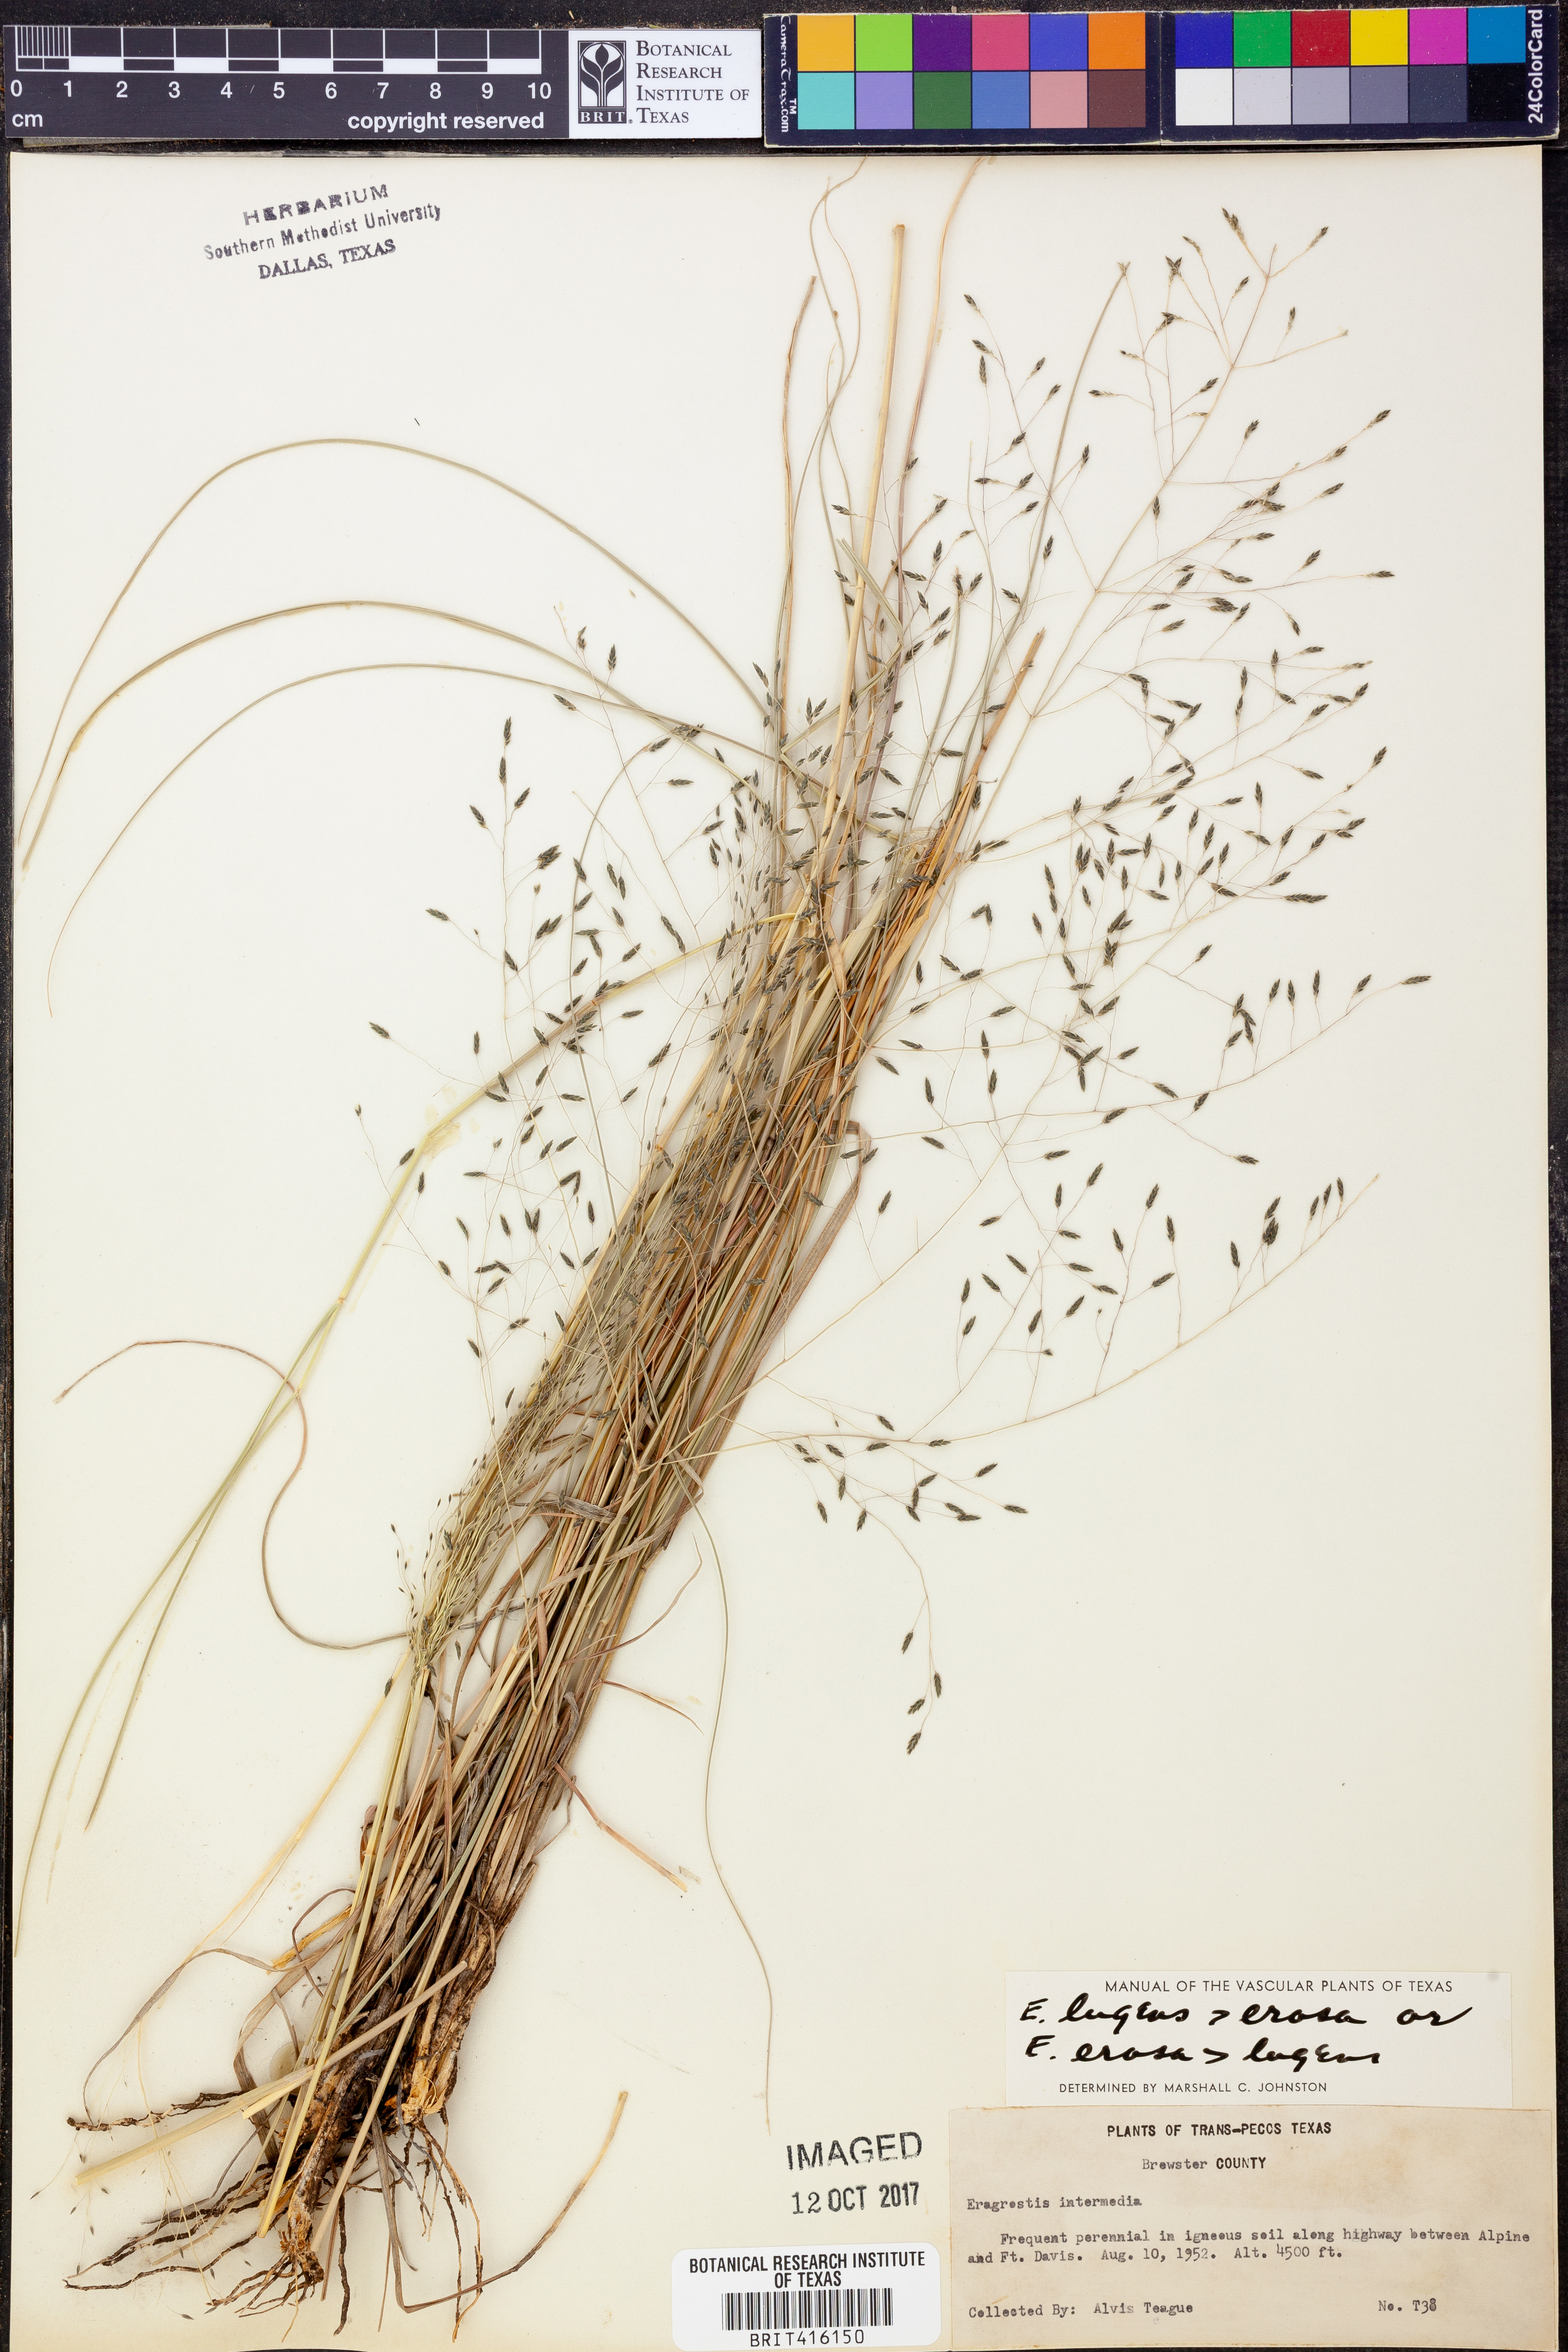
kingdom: Plantae
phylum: Tracheophyta
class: Liliopsida
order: Poales
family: Poaceae
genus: Eragrostis
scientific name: Eragrostis capillaris
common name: Hair-like lovegrass
